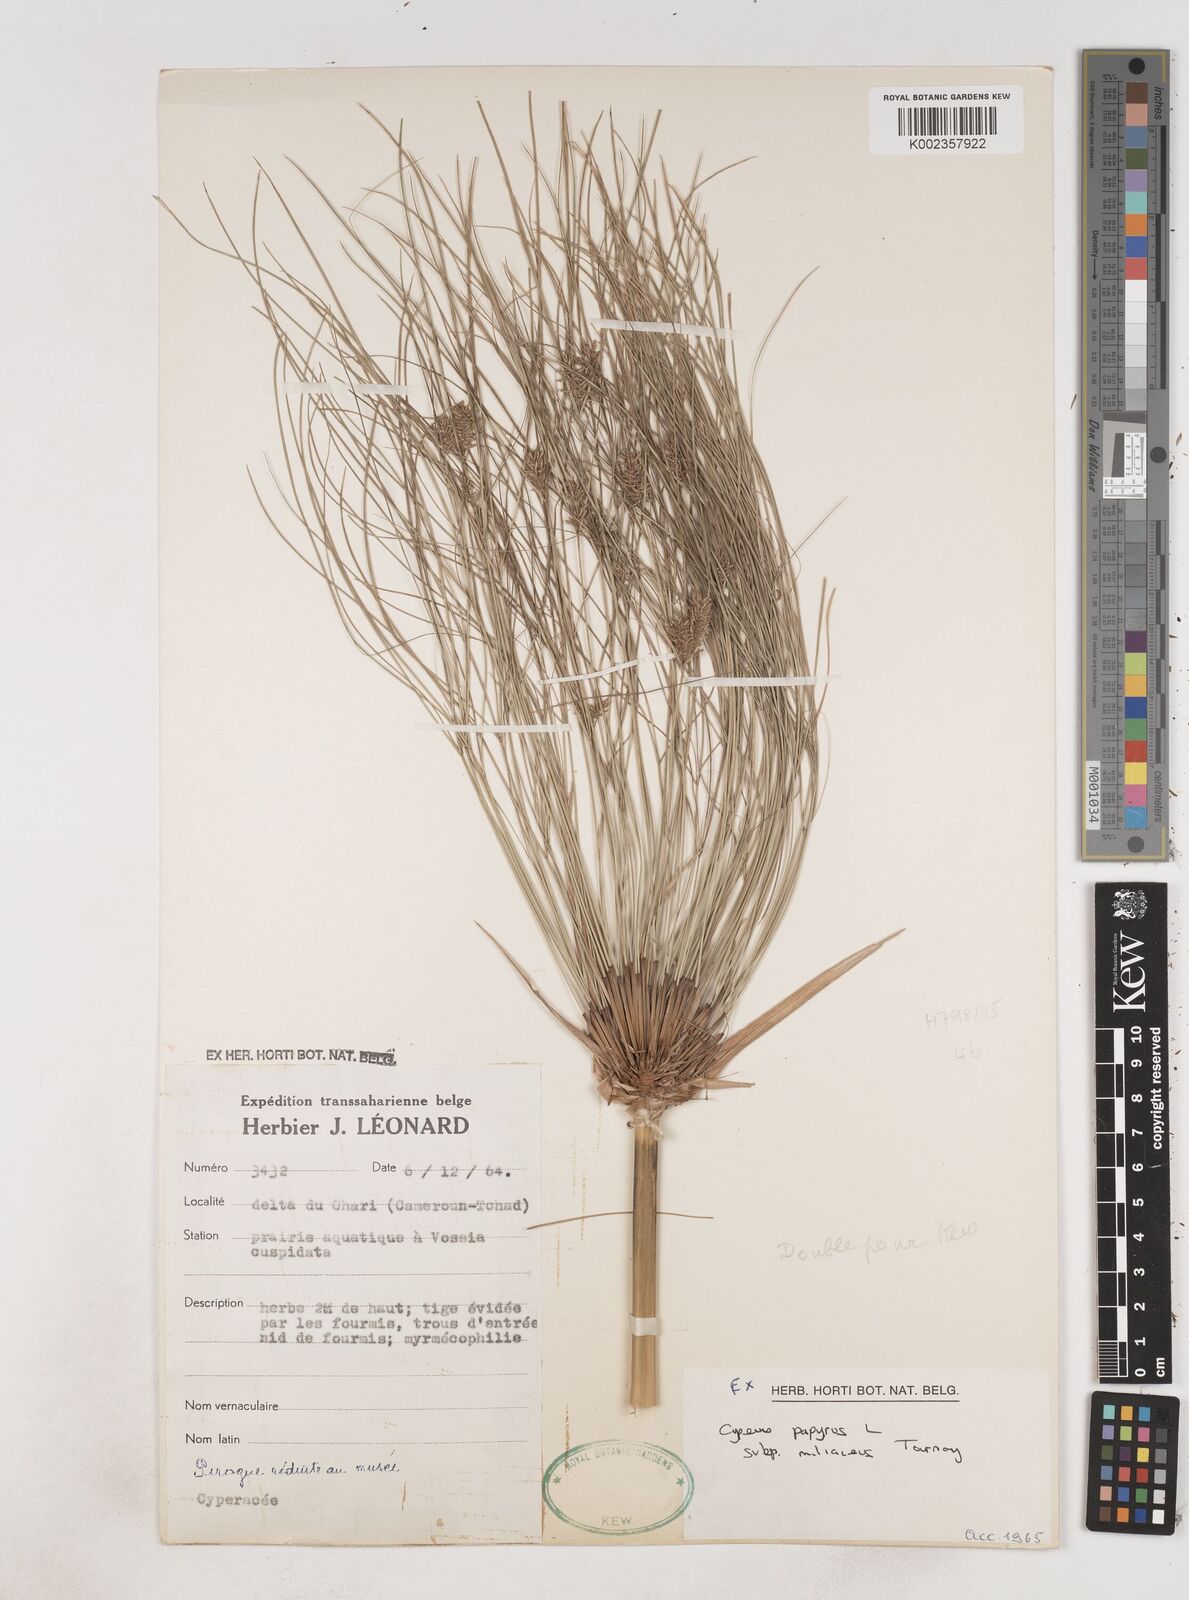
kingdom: Plantae
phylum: Tracheophyta
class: Liliopsida
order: Poales
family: Cyperaceae
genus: Cyperus
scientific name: Cyperus papyrus
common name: Papyrus
